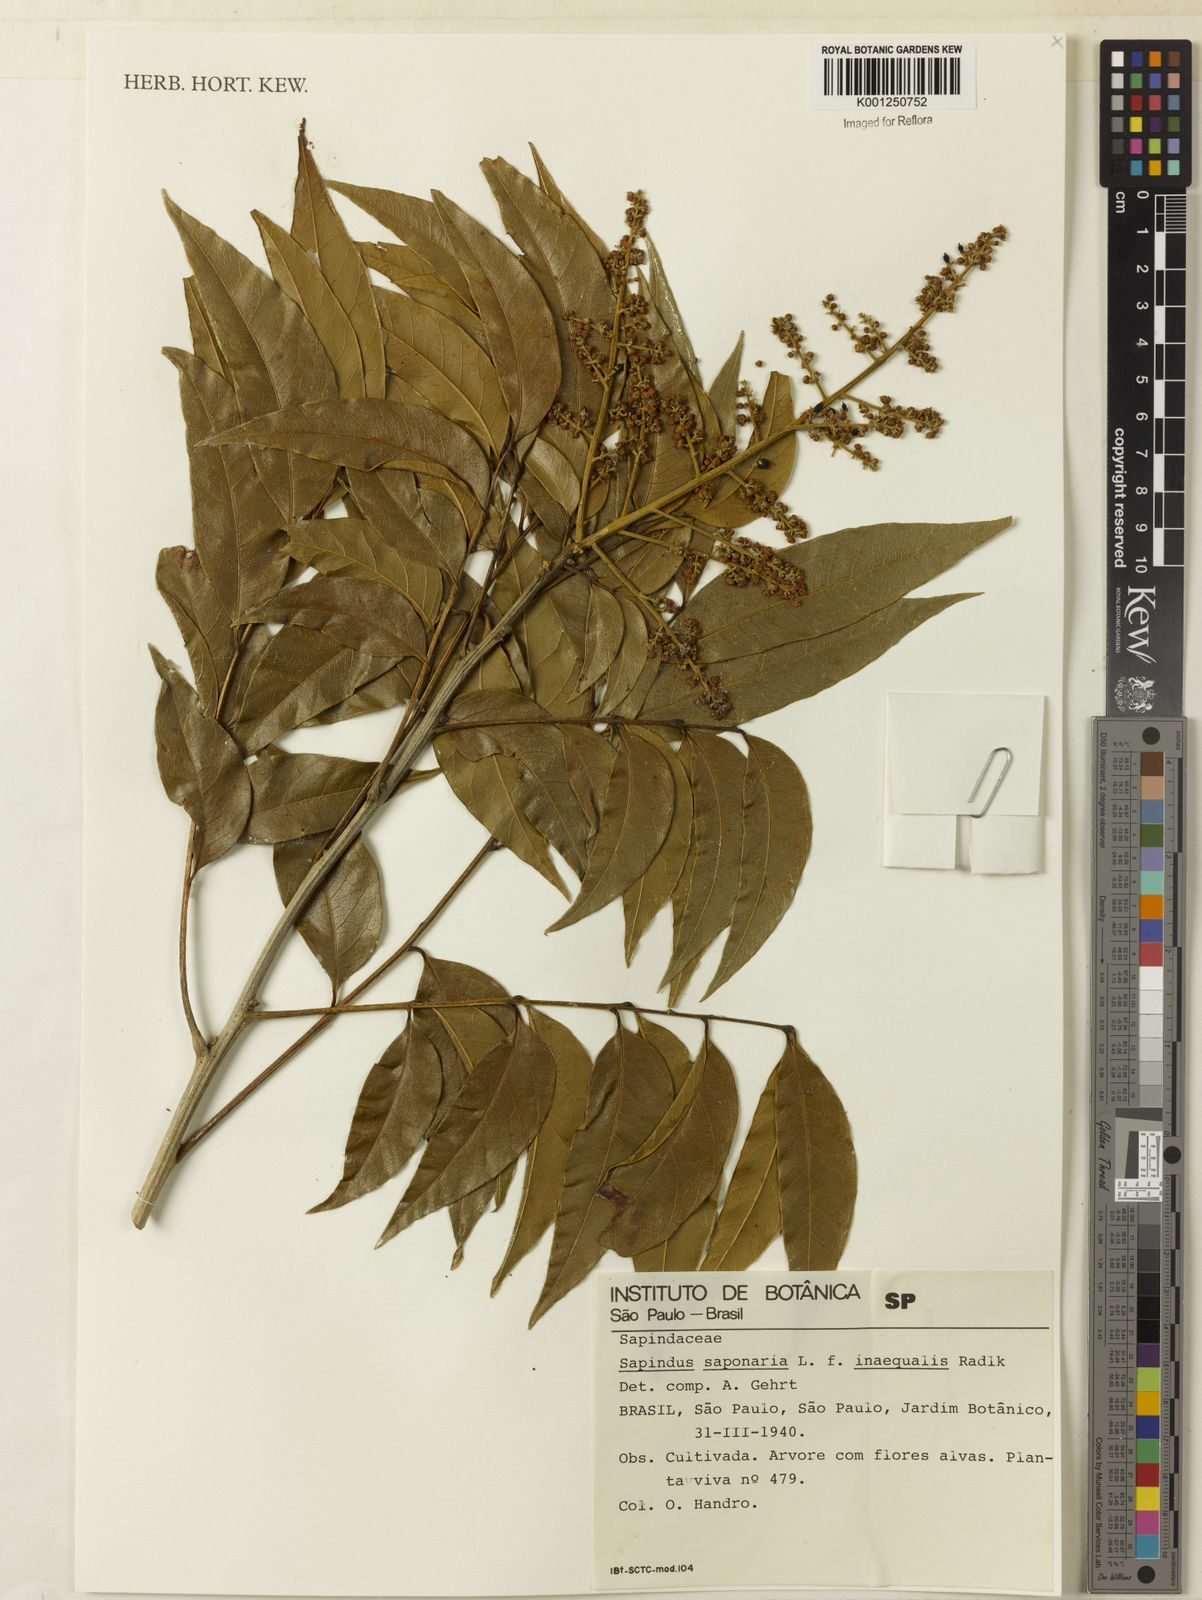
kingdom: Plantae
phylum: Tracheophyta
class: Magnoliopsida
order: Sapindales
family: Sapindaceae
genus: Sapindus
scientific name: Sapindus
